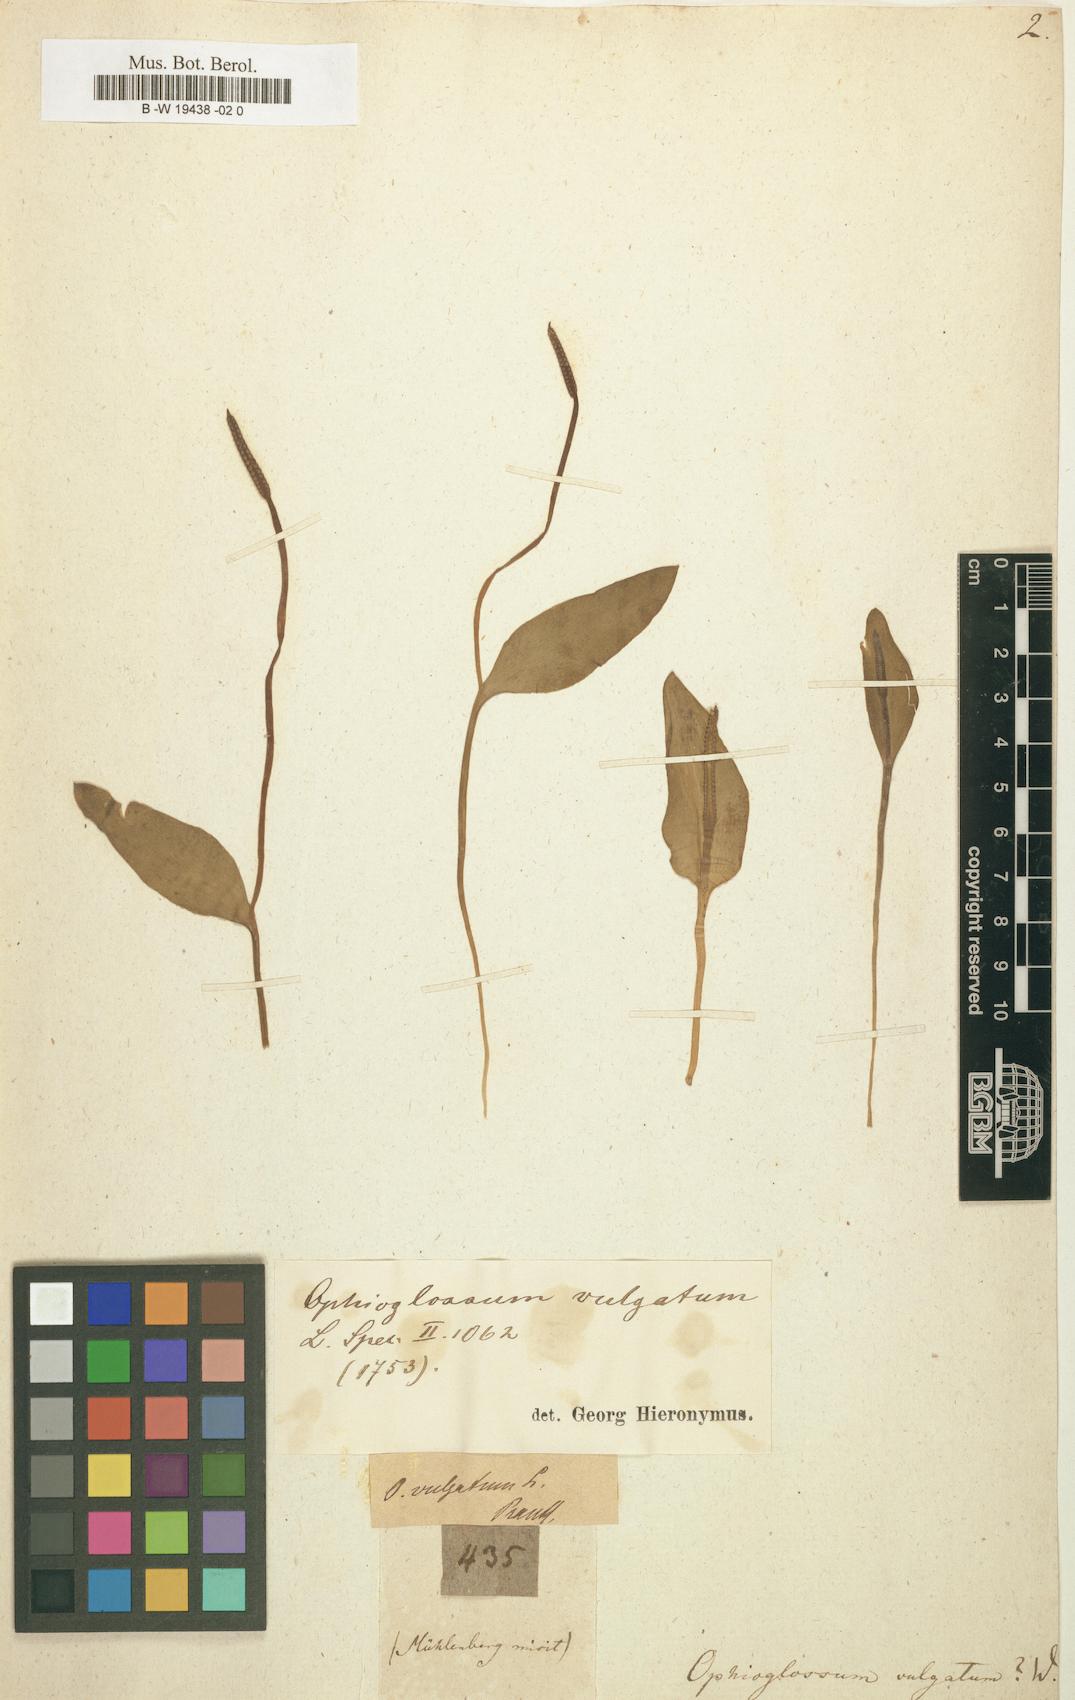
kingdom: Plantae
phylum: Tracheophyta
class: Polypodiopsida
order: Ophioglossales
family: Ophioglossaceae
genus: Ophioglossum
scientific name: Ophioglossum vulgatum
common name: Adder's-tongue
